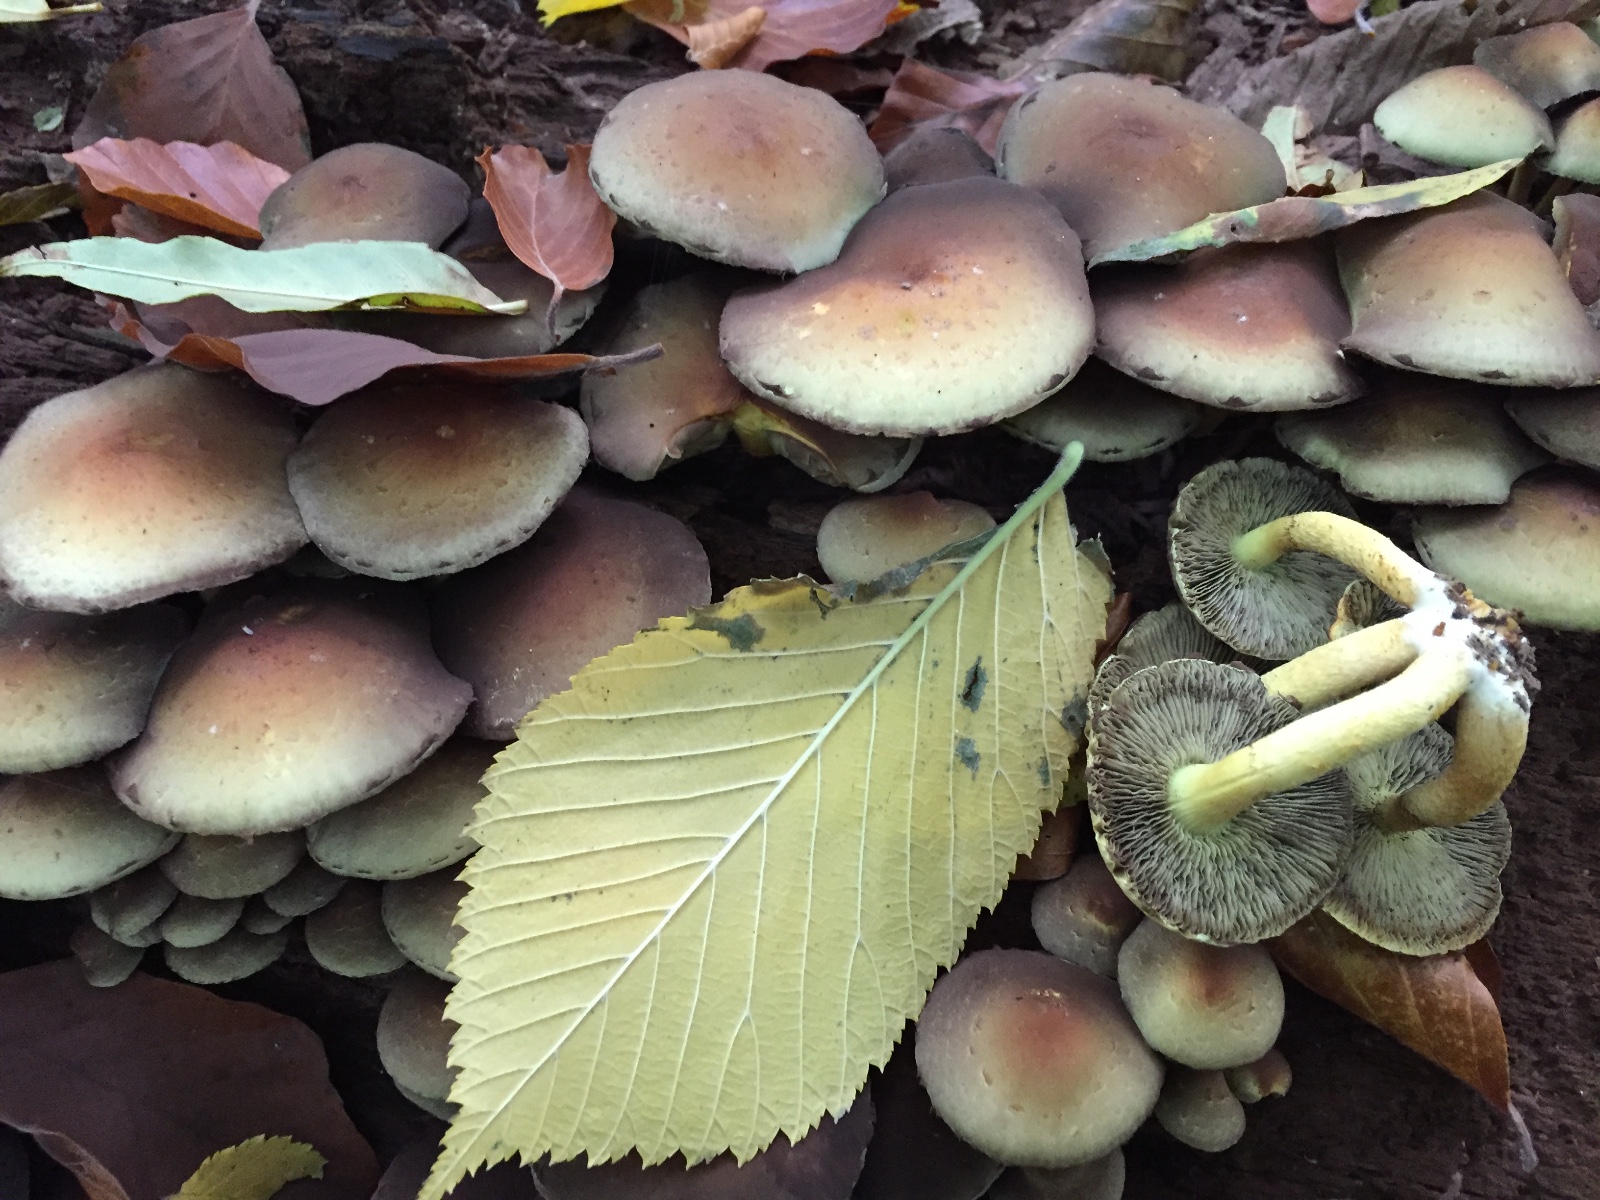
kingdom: Fungi
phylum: Basidiomycota
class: Agaricomycetes
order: Agaricales
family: Strophariaceae
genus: Hypholoma
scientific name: Hypholoma fasciculare
